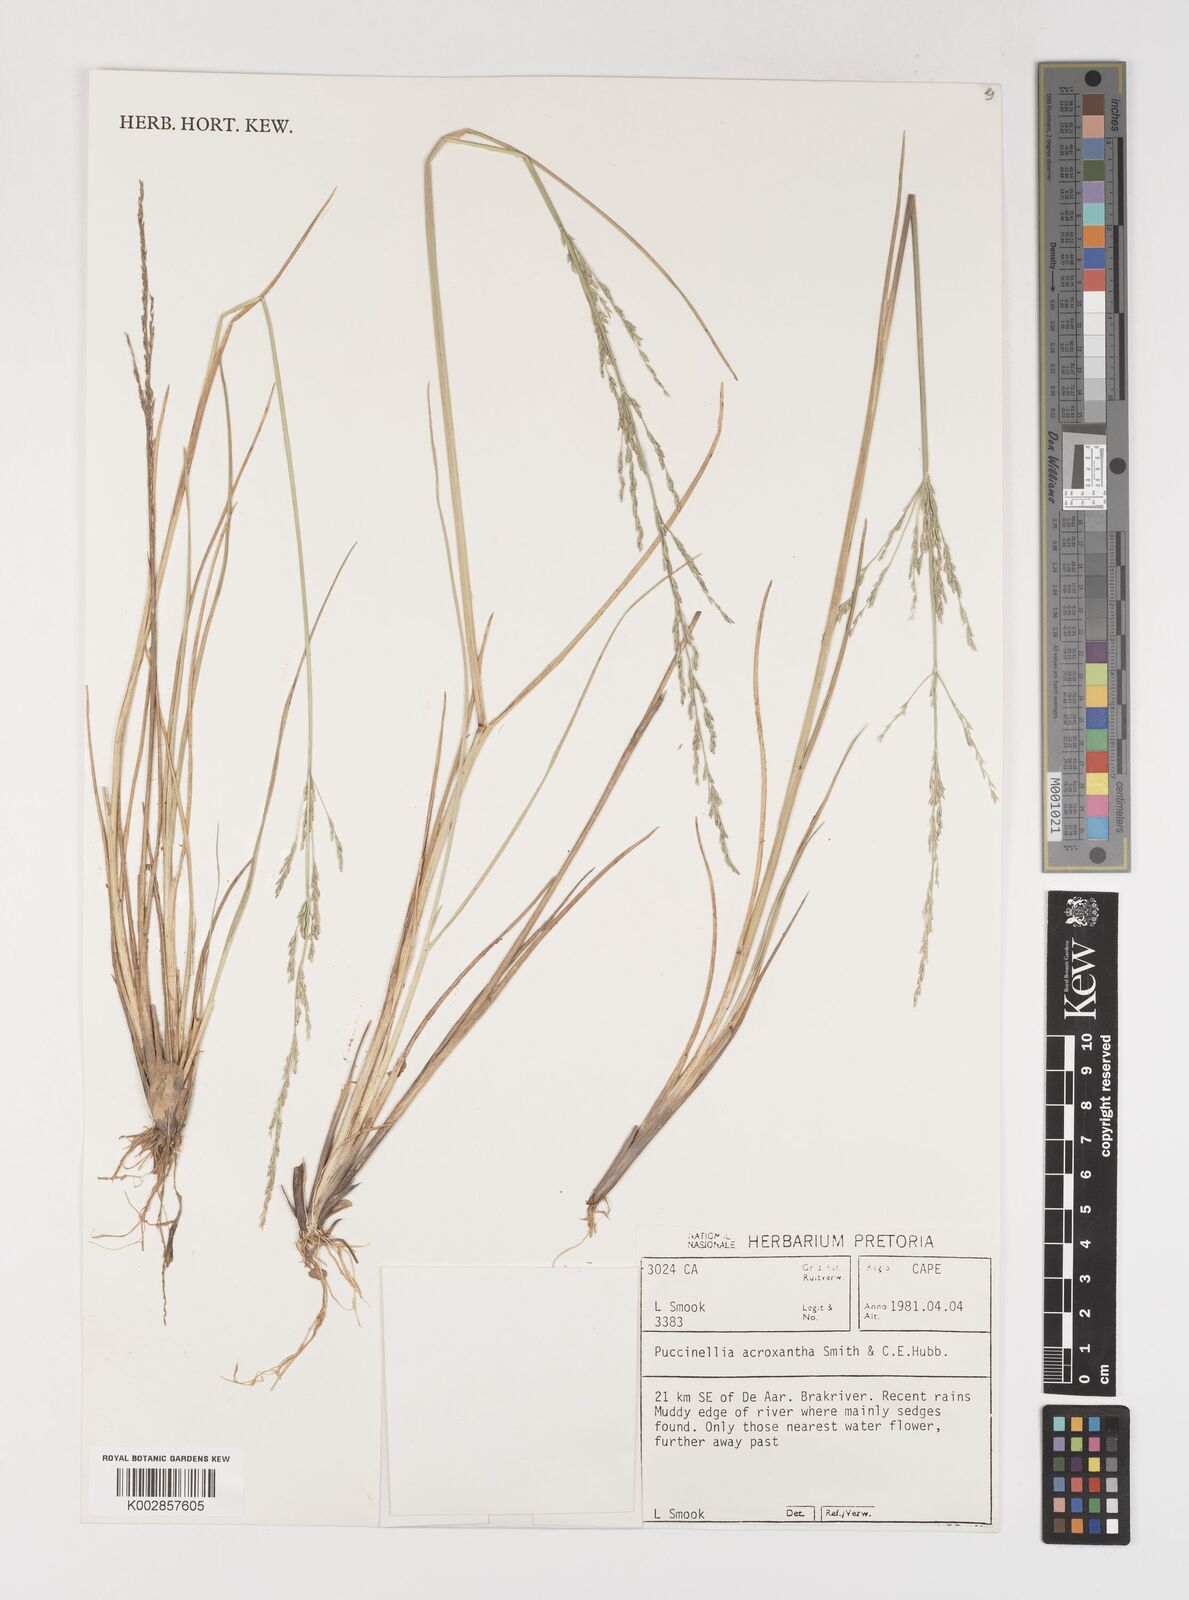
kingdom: Plantae
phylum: Tracheophyta
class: Liliopsida
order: Poales
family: Poaceae
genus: Puccinellia
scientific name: Puccinellia acroxantha
